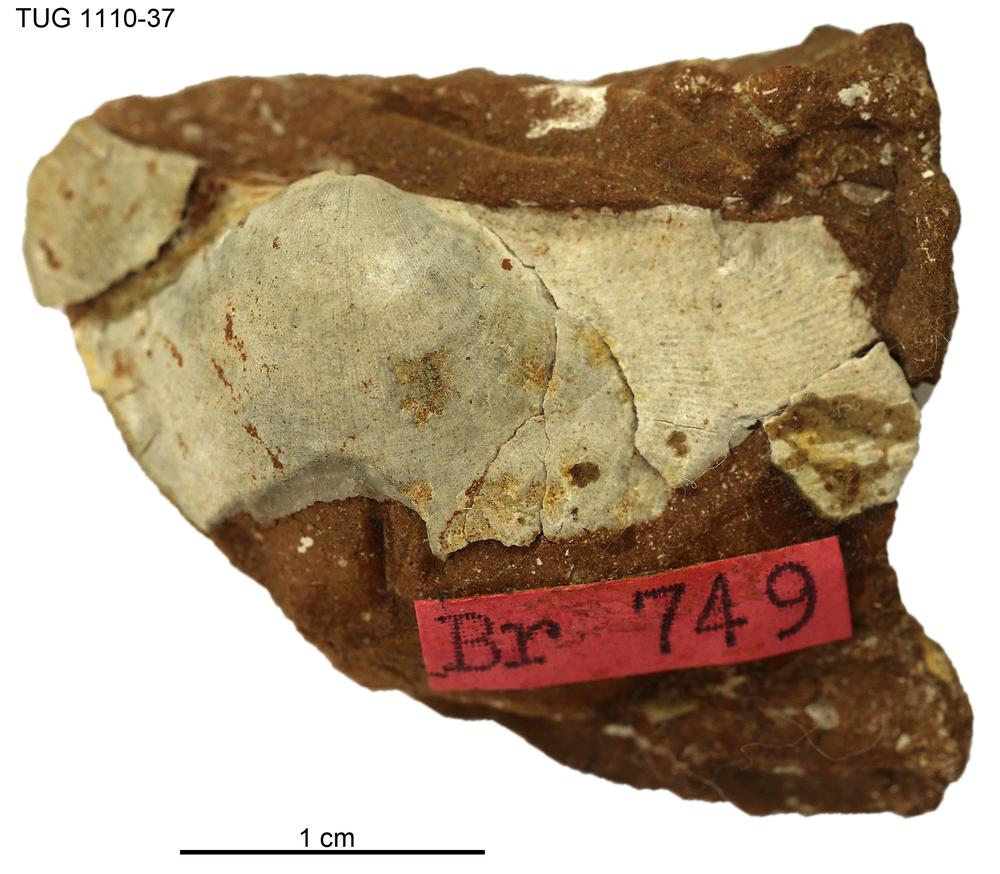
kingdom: Animalia
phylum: Brachiopoda
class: Rhynchonellata
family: Porambonitidae
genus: Porambonites
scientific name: Porambonites
